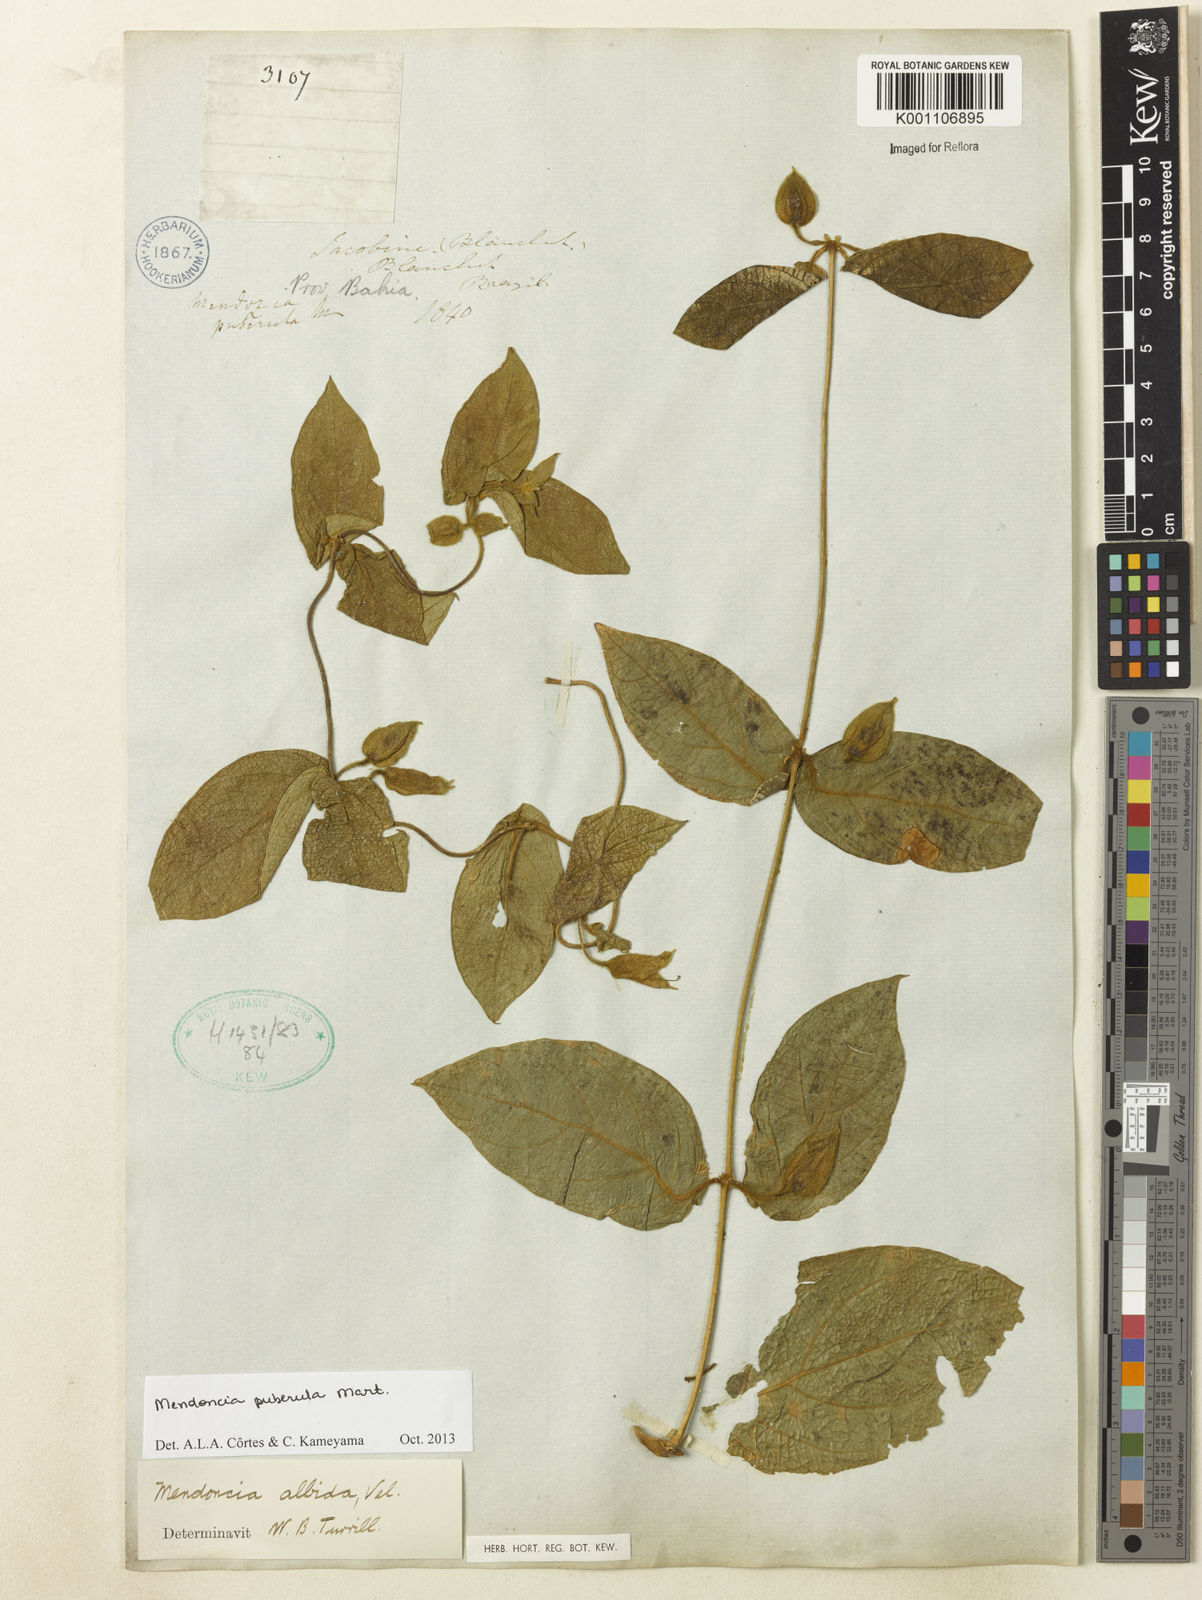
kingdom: Plantae
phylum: Tracheophyta
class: Magnoliopsida
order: Lamiales
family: Acanthaceae
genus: Mendoncia
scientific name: Mendoncia puberula
